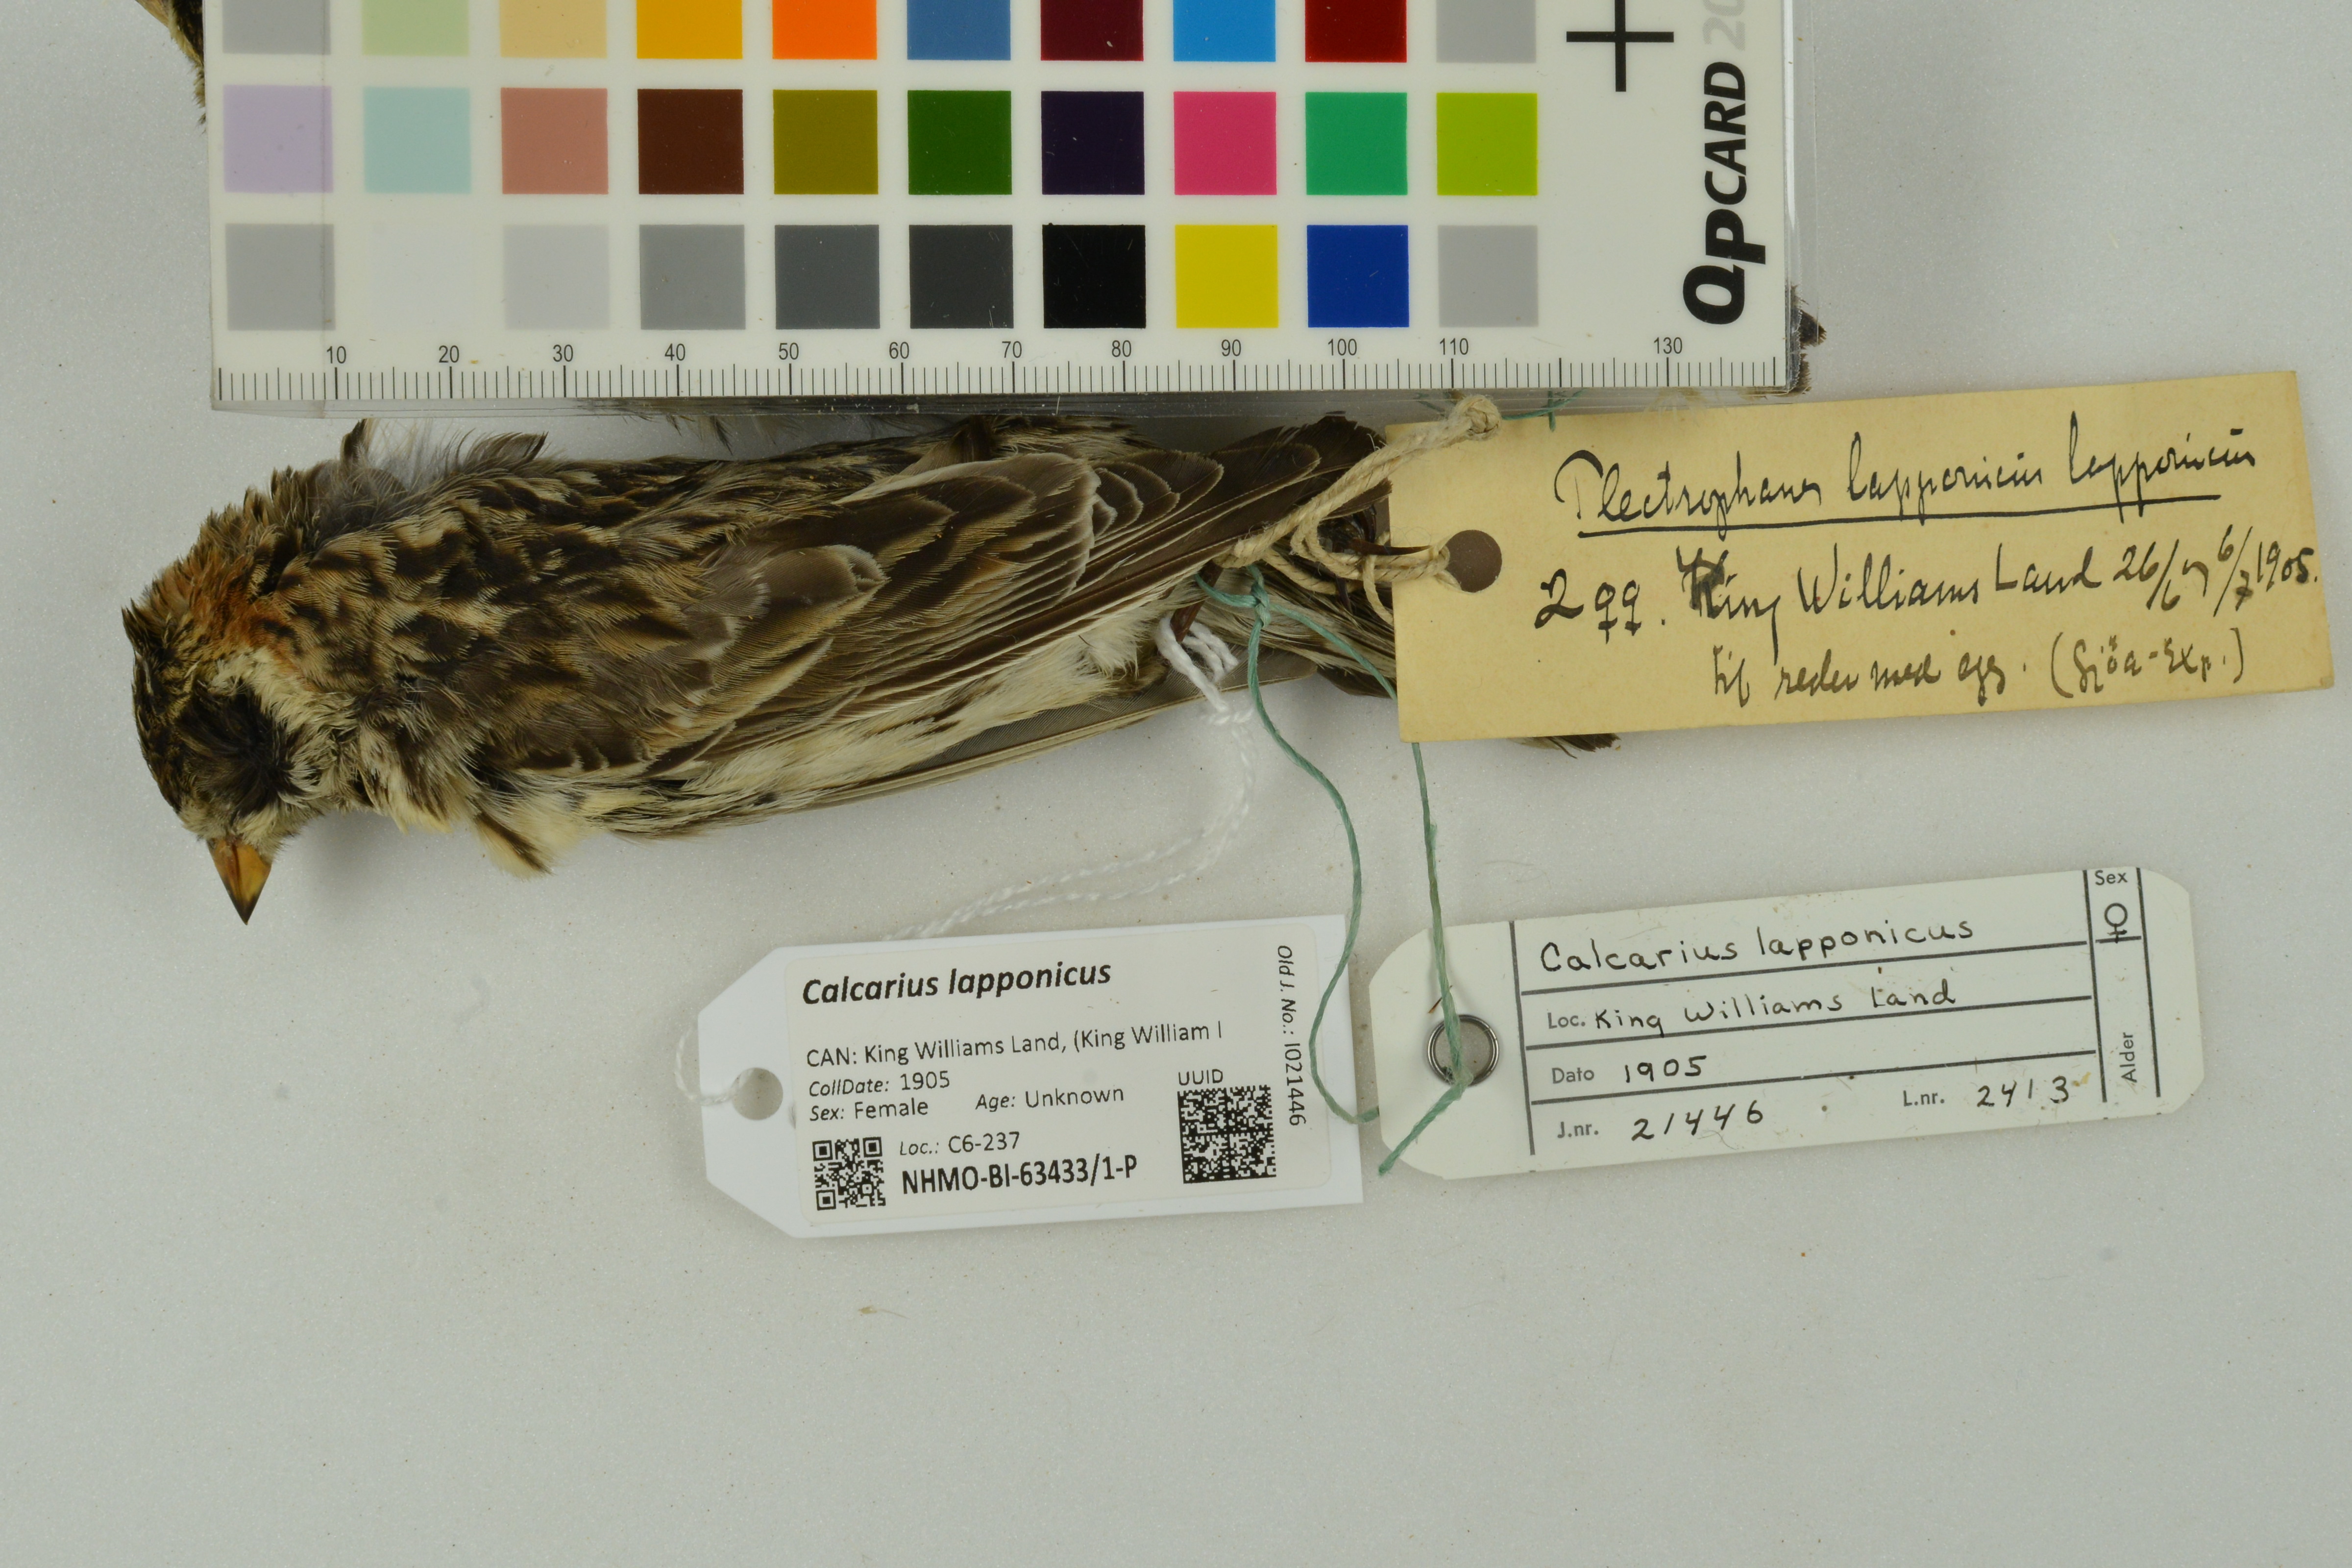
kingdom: Animalia
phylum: Chordata
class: Aves
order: Passeriformes
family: Calcariidae
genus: Calcarius
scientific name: Calcarius lapponicus
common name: Lapland longspur
